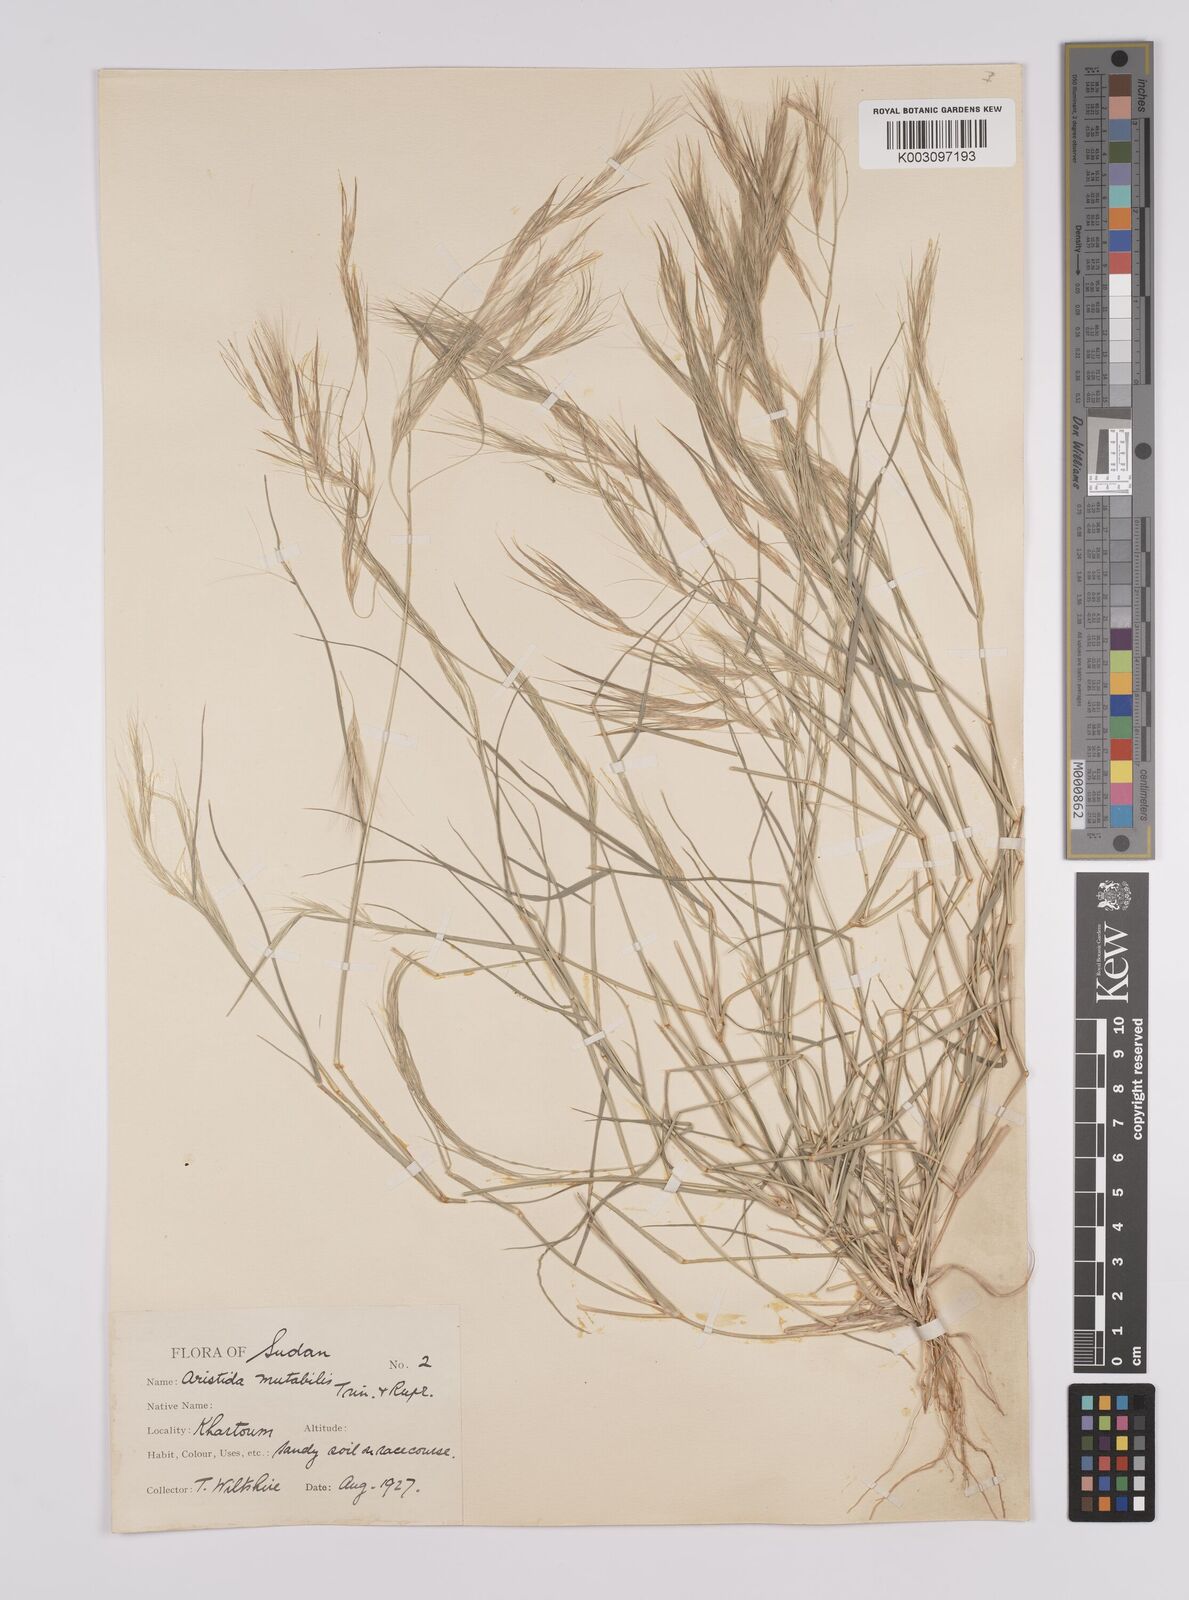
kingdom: Plantae
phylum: Tracheophyta
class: Liliopsida
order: Poales
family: Poaceae
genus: Aristida
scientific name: Aristida mutabilis
